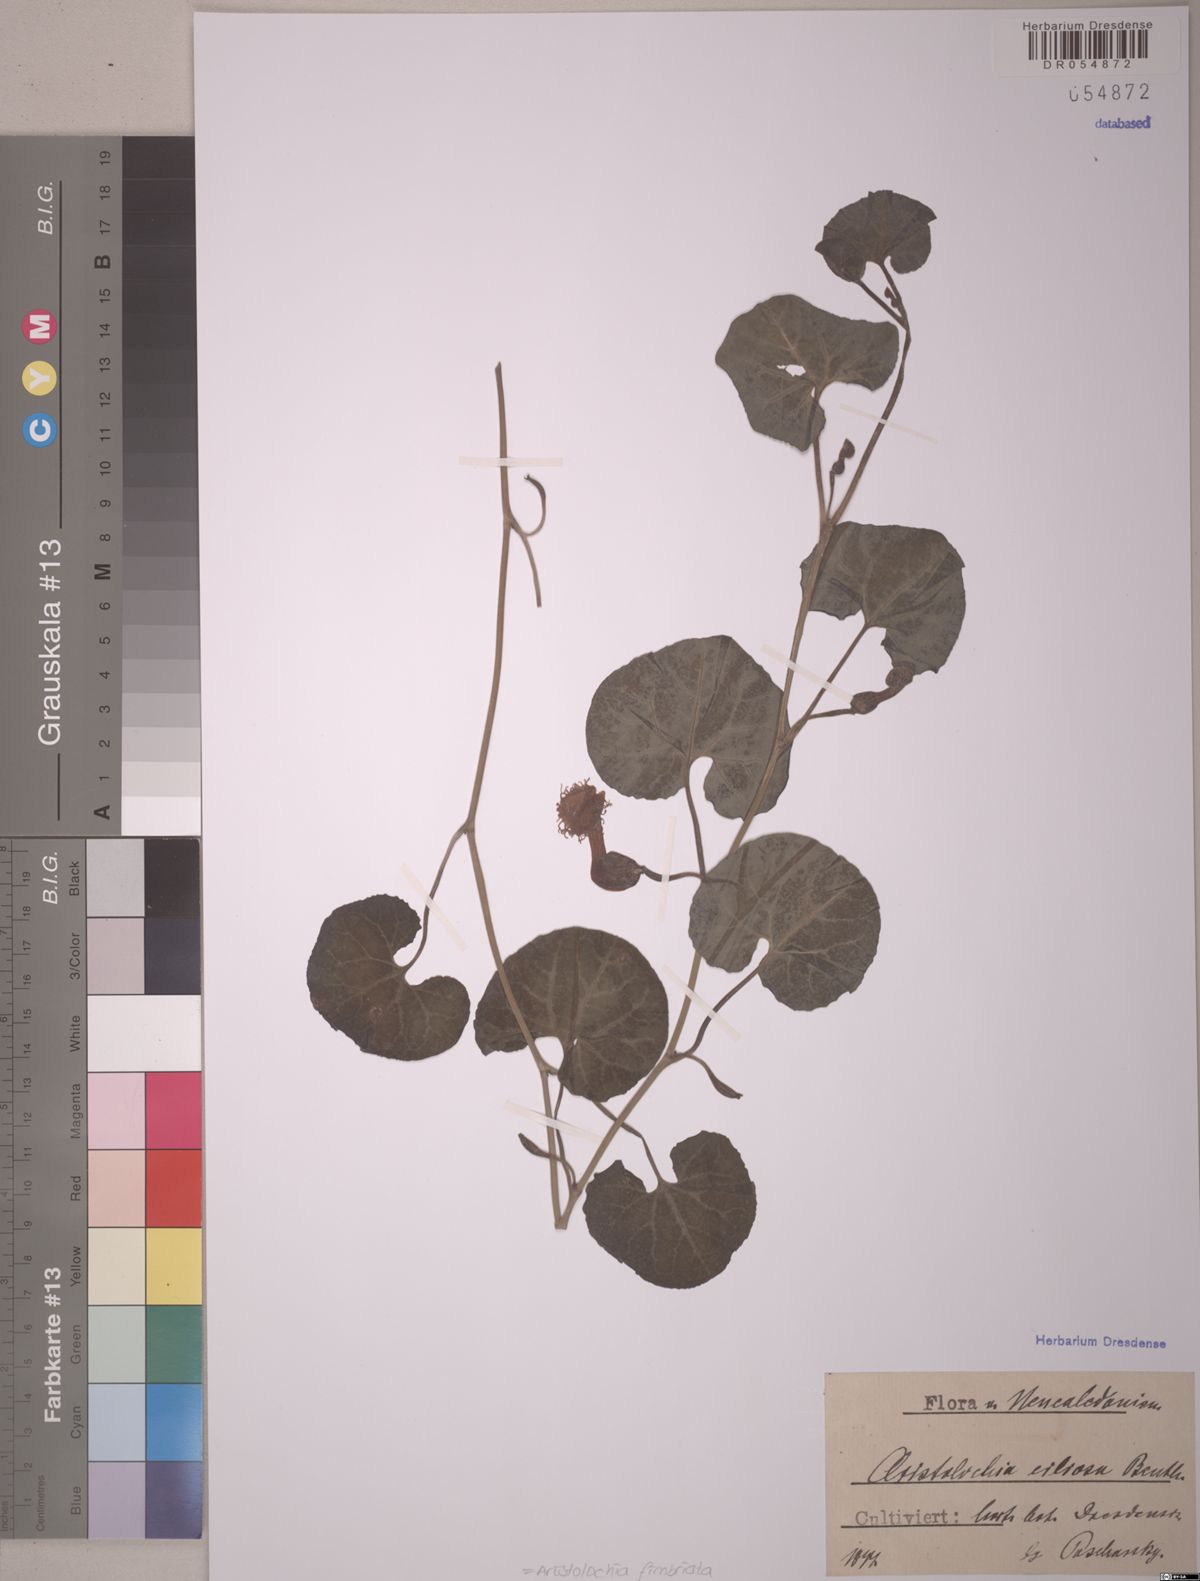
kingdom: Plantae
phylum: Tracheophyta
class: Magnoliopsida
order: Piperales
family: Aristolochiaceae
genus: Aristolochia
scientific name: Aristolochia fimbriata
